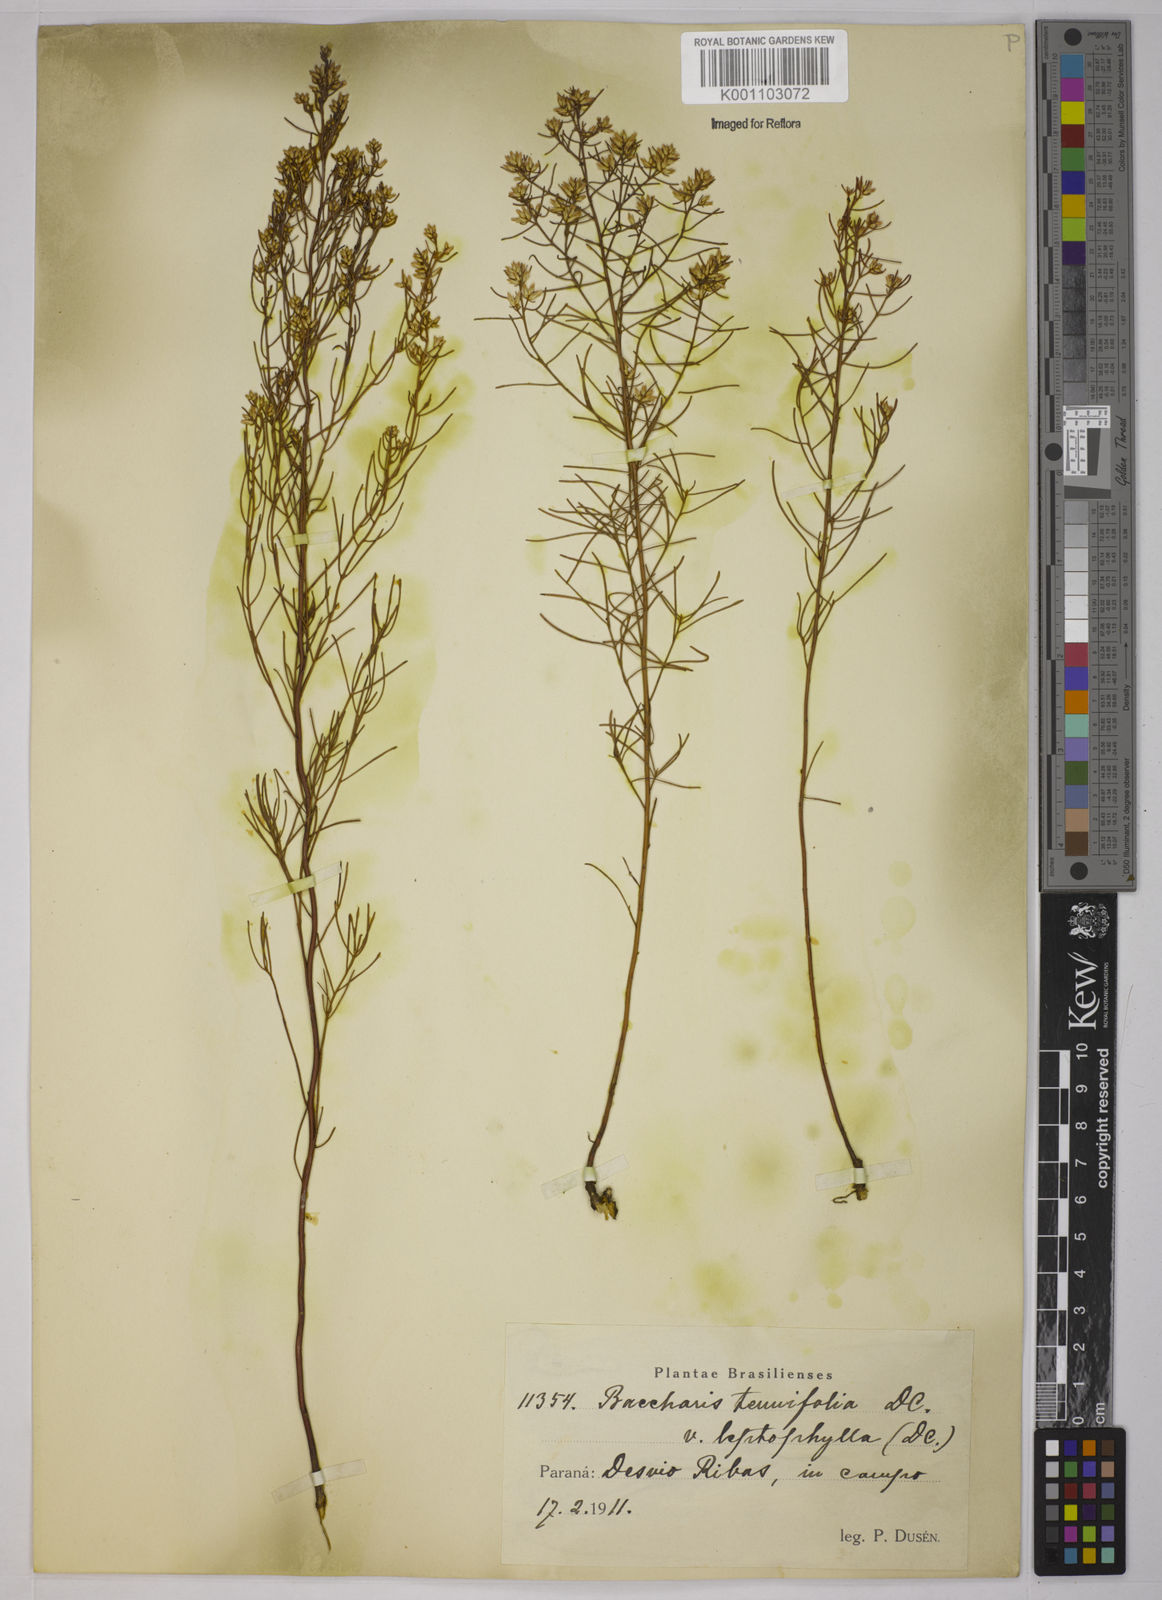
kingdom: Plantae
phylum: Tracheophyta
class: Magnoliopsida
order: Asterales
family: Asteraceae
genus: Baccharis
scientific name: Baccharis leptocephala
